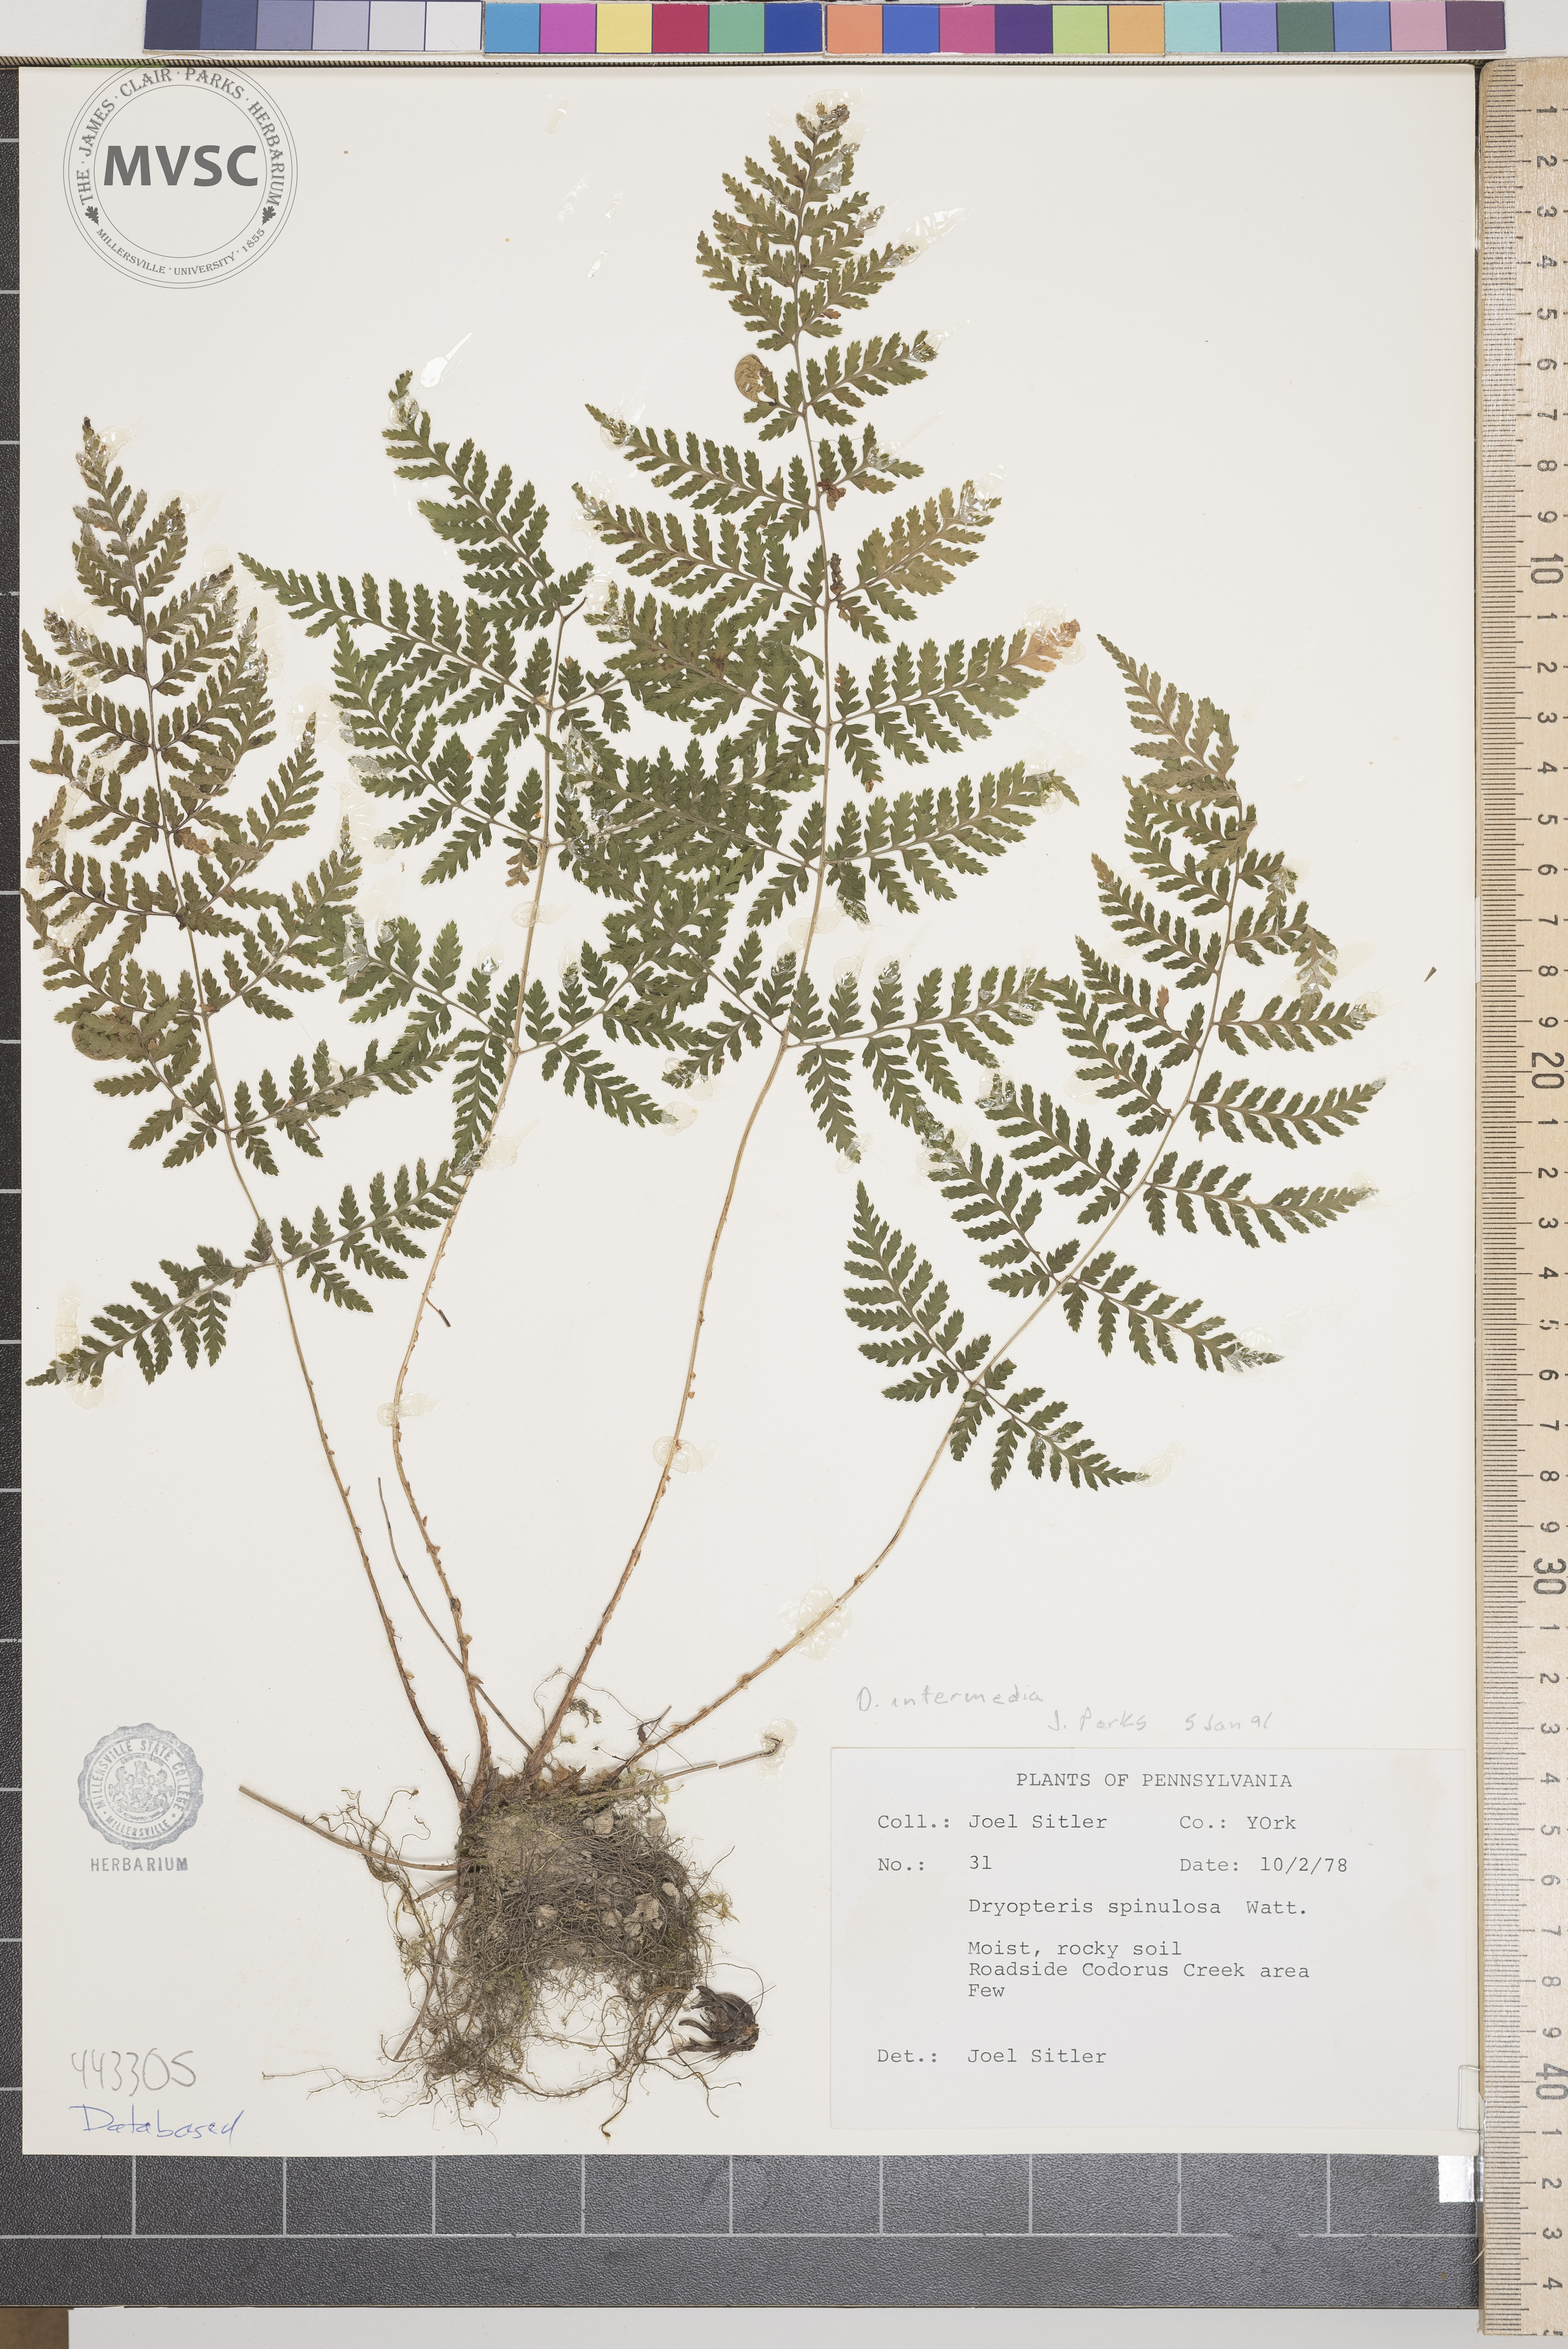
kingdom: Plantae
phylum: Tracheophyta
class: Polypodiopsida
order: Polypodiales
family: Dryopteridaceae
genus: Dryopteris
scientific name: Dryopteris intermedia
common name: Evergreen wood fern
